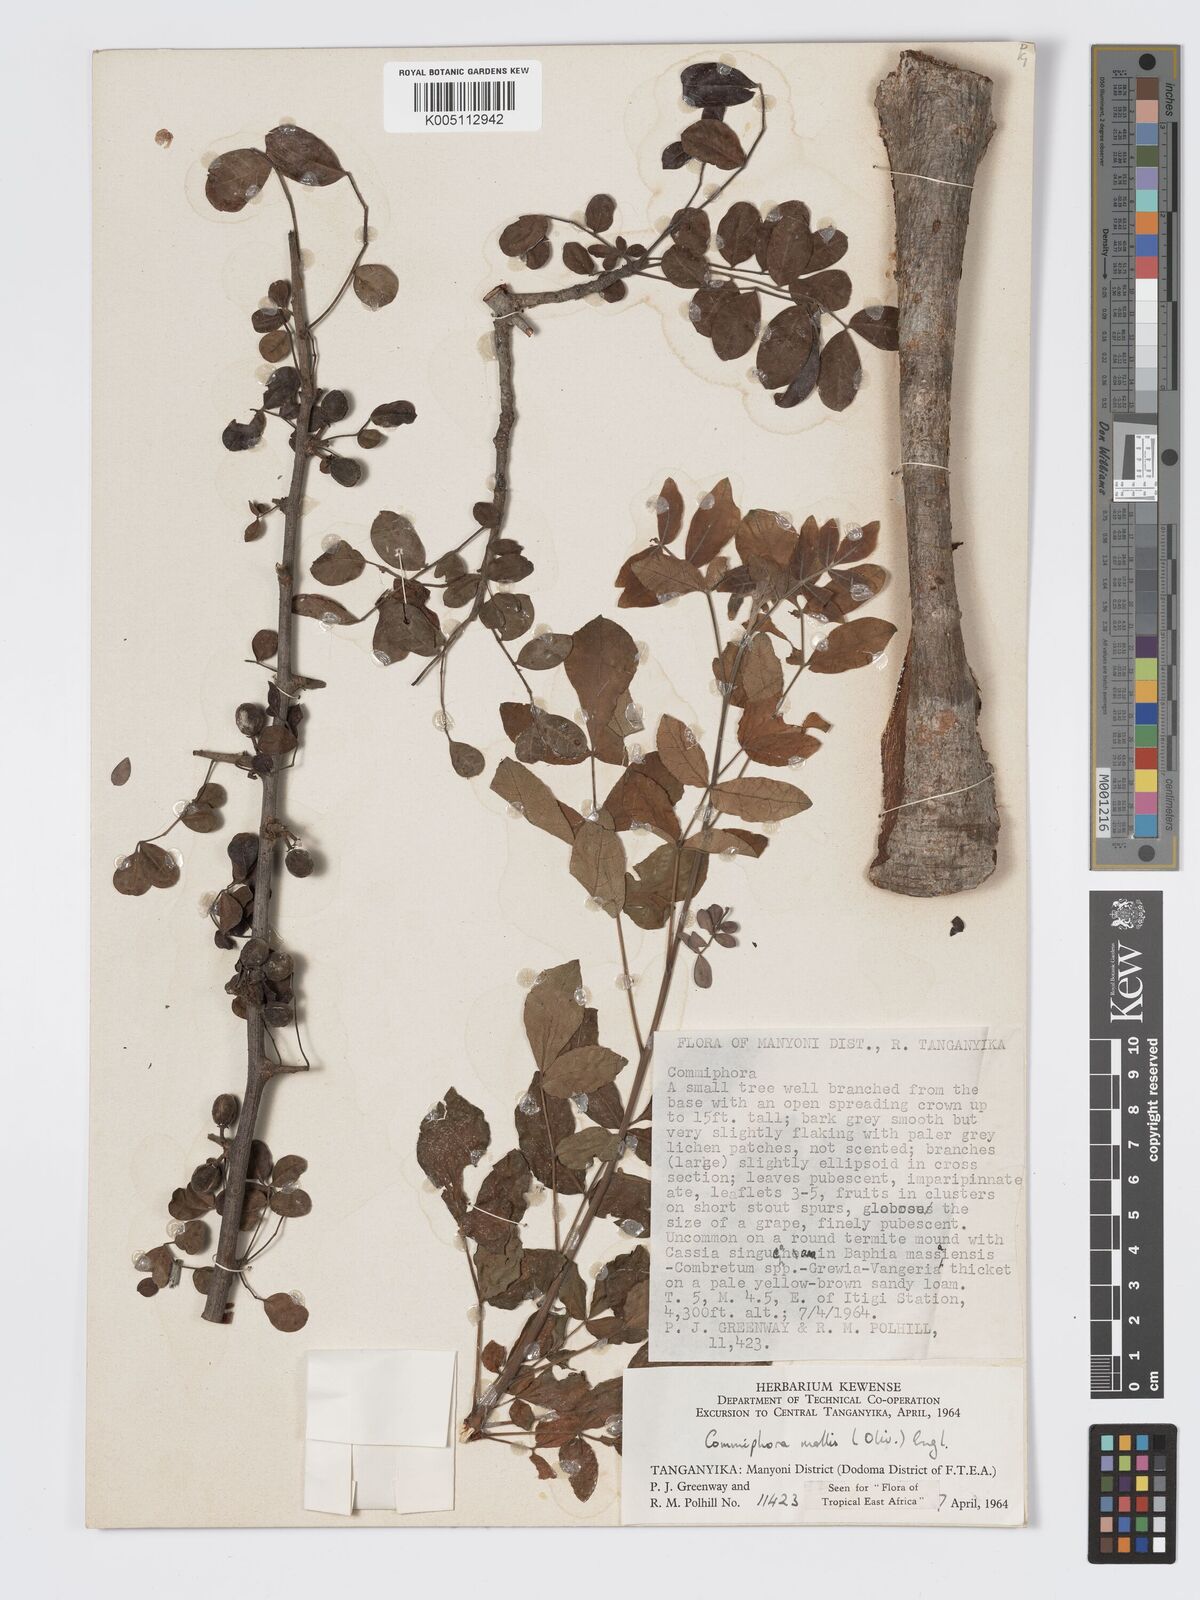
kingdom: Plantae
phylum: Tracheophyta
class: Magnoliopsida
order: Sapindales
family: Burseraceae
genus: Commiphora
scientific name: Commiphora
